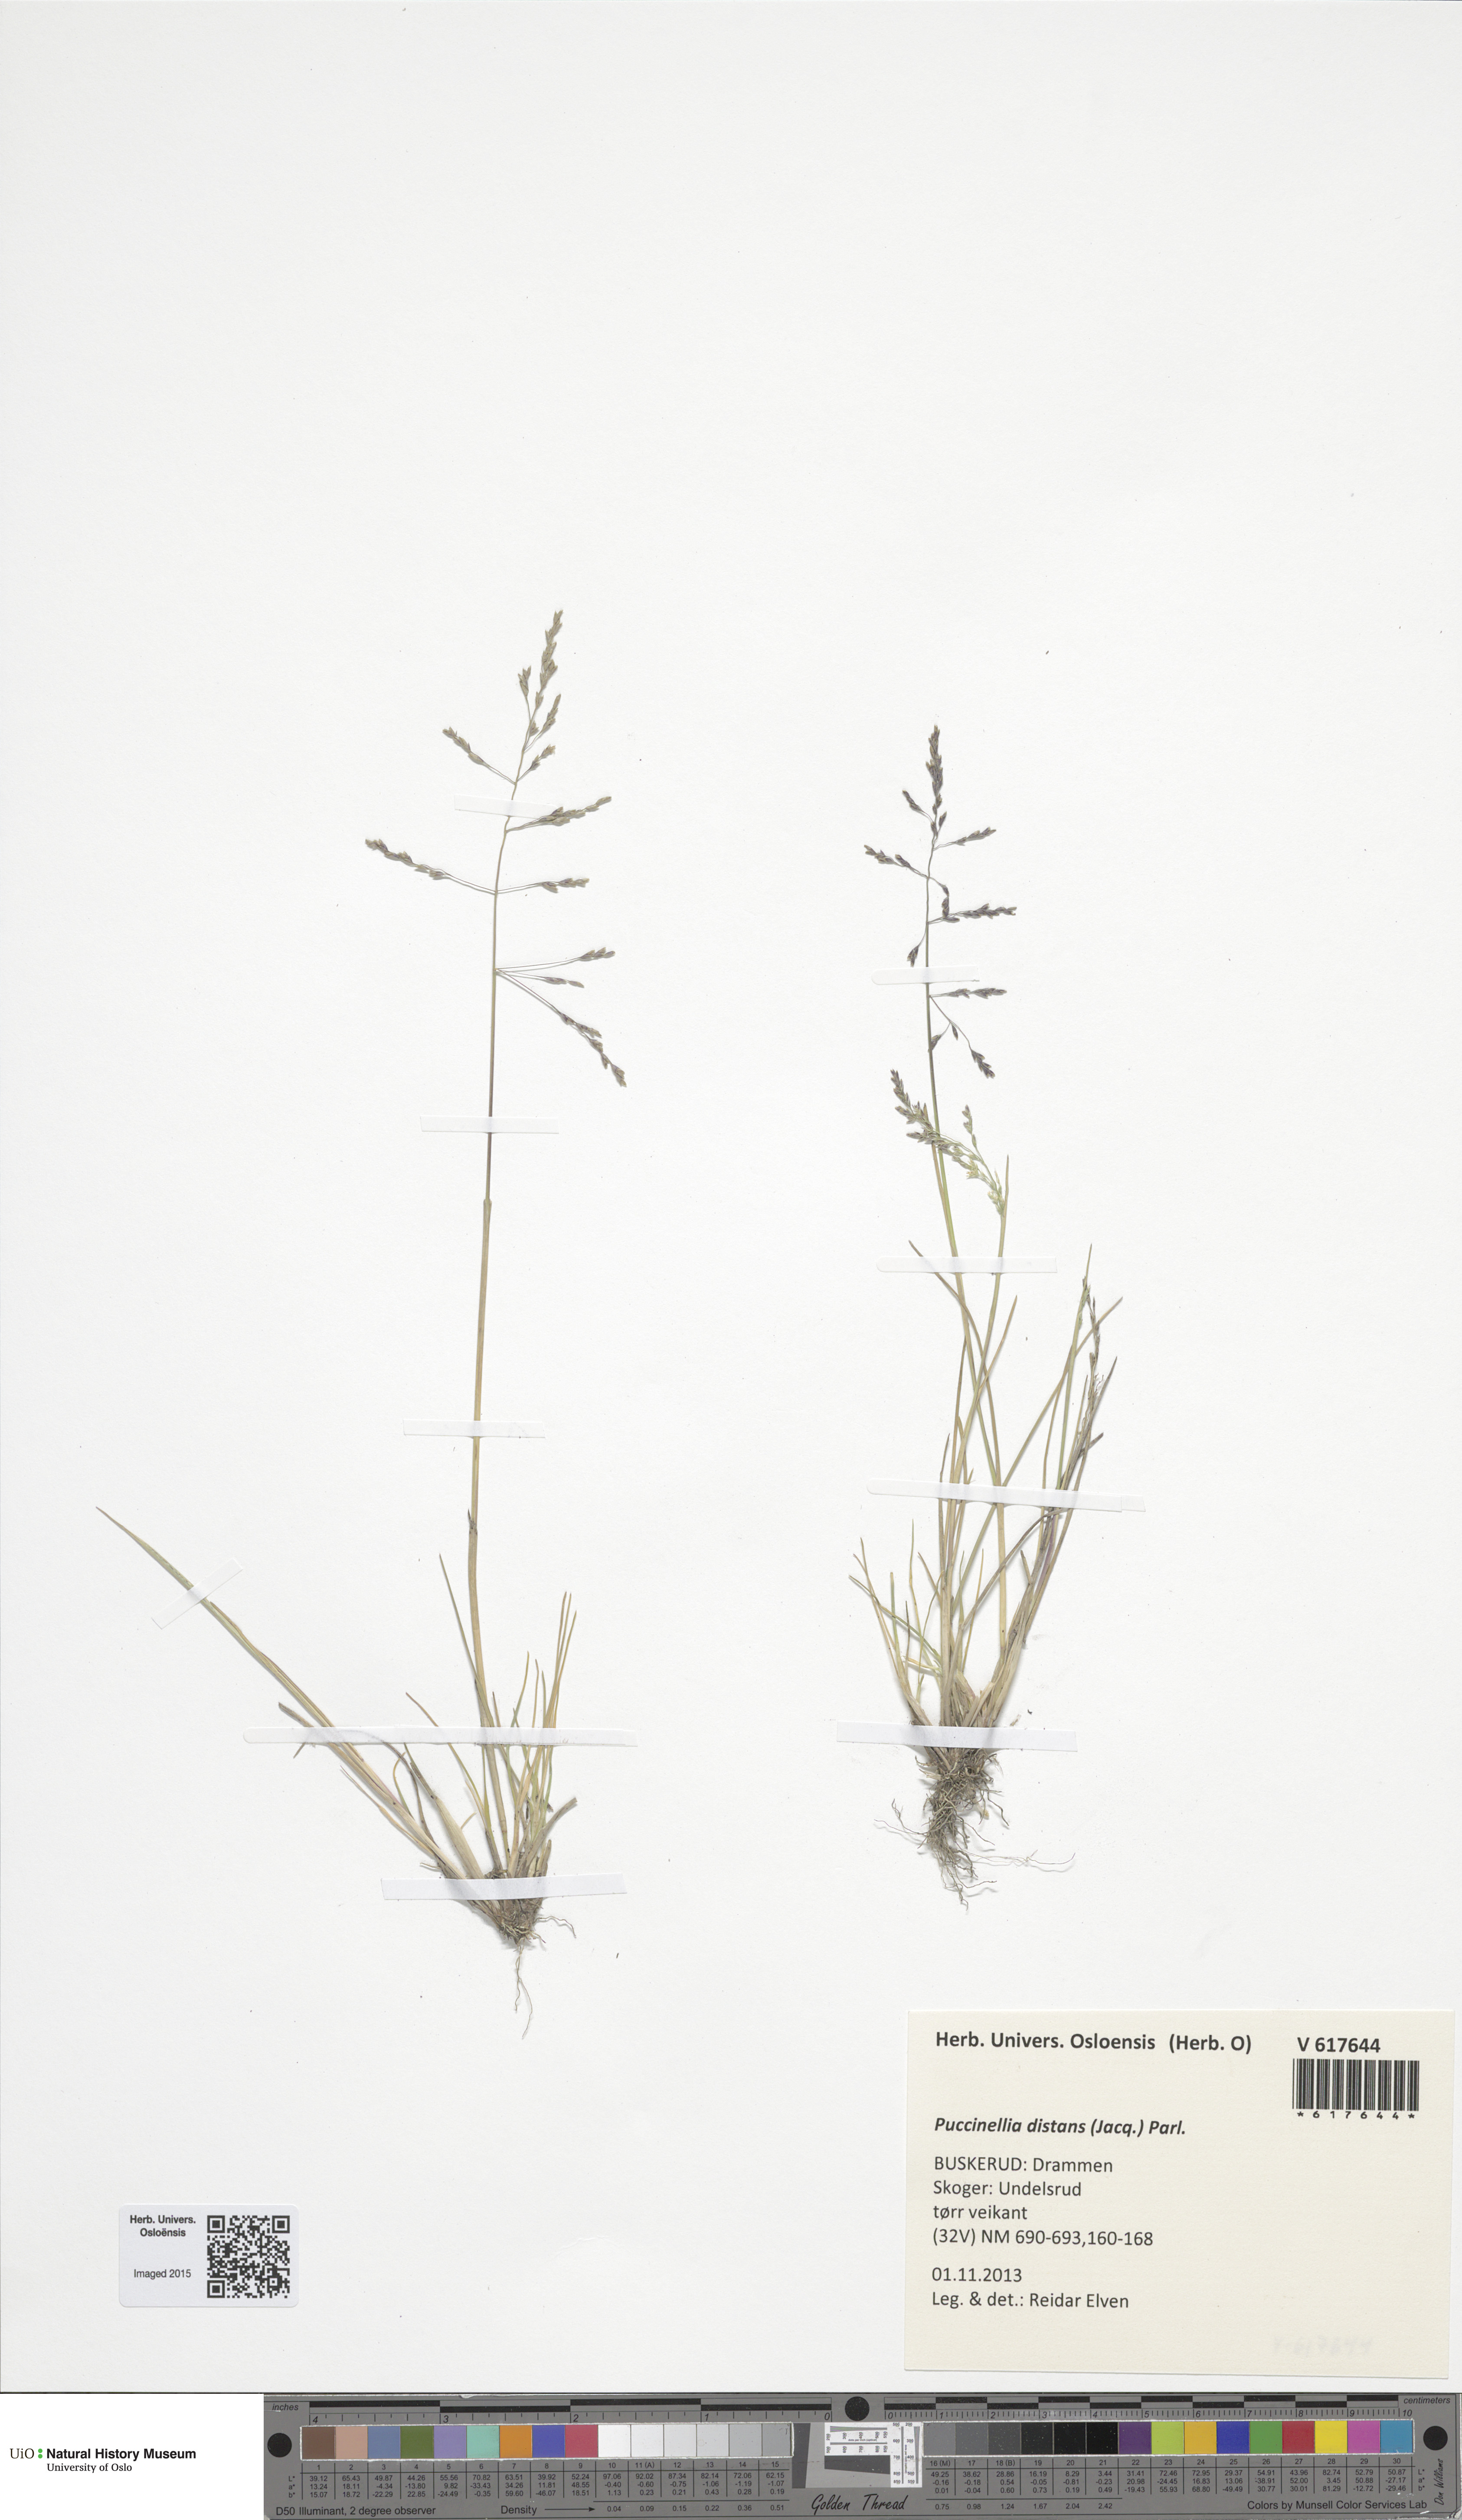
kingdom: Plantae
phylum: Tracheophyta
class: Liliopsida
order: Poales
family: Poaceae
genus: Puccinellia
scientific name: Puccinellia distans
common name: Weeping alkaligrass
